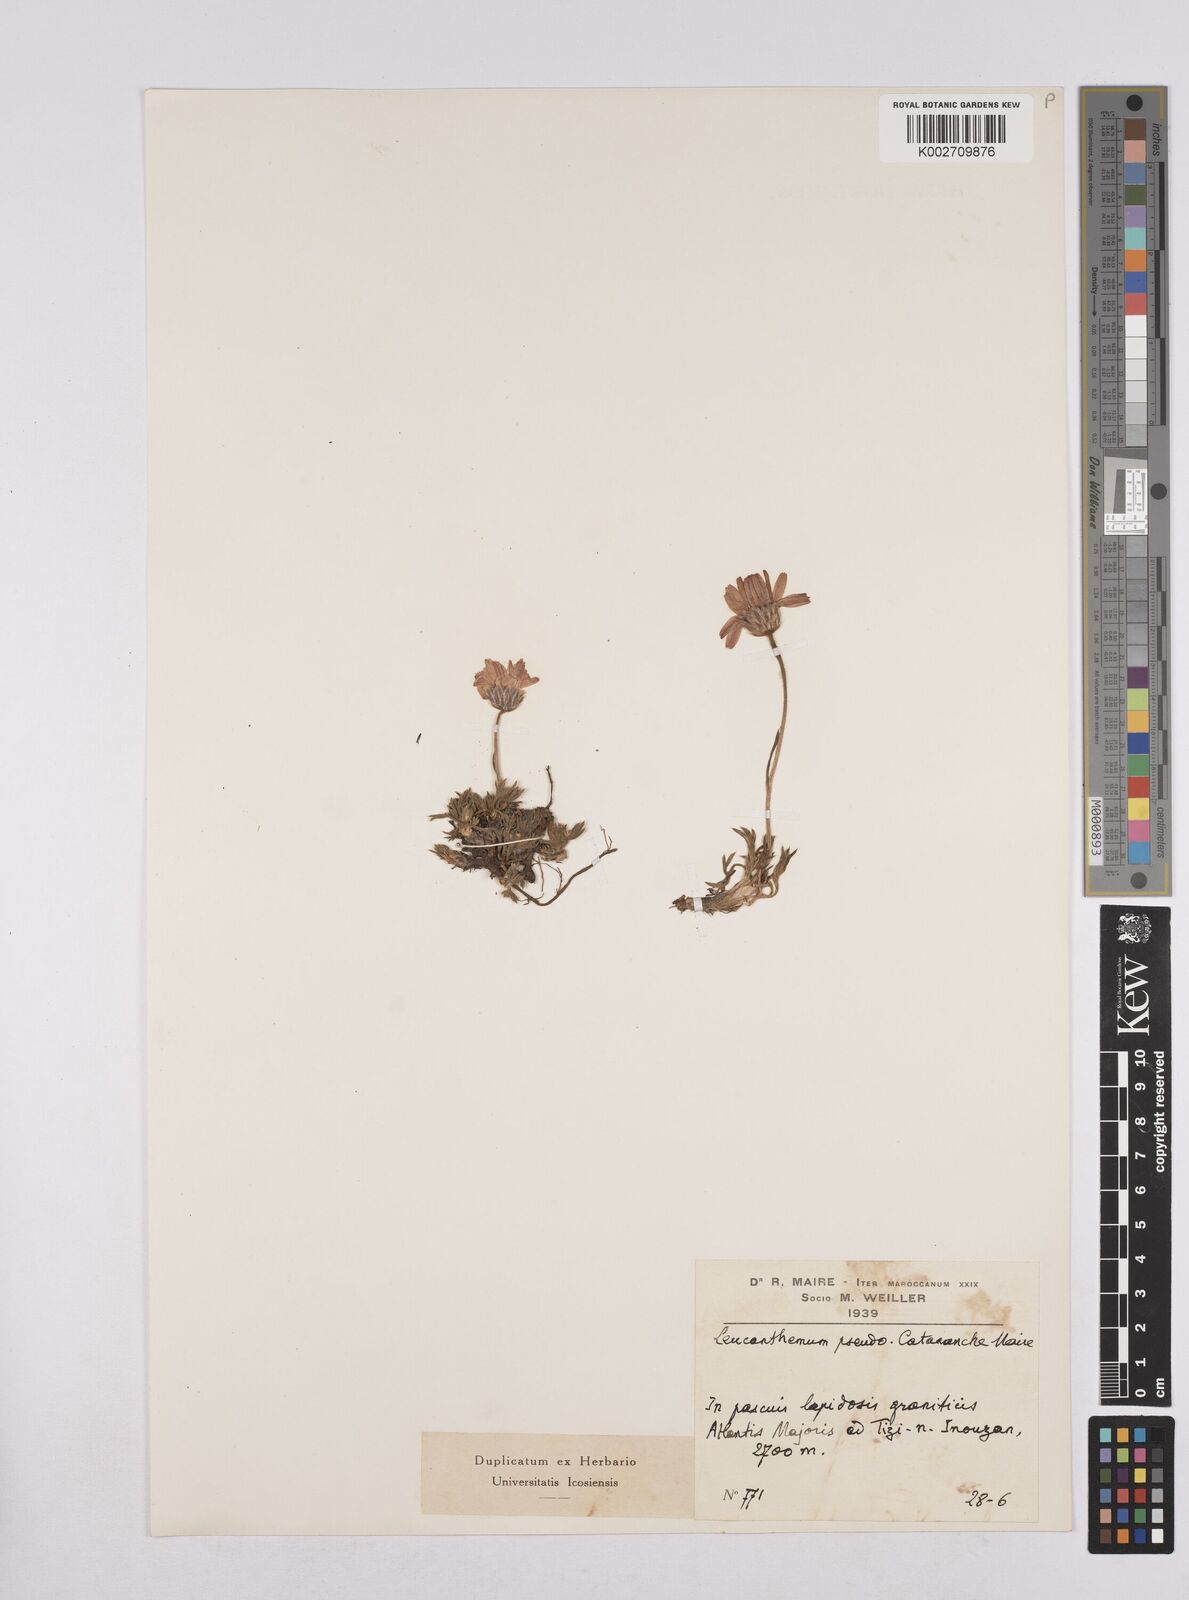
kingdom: Plantae
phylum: Tracheophyta
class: Magnoliopsida
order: Asterales
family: Asteraceae
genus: Rhodanthemum
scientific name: Rhodanthemum pseudocatananche
